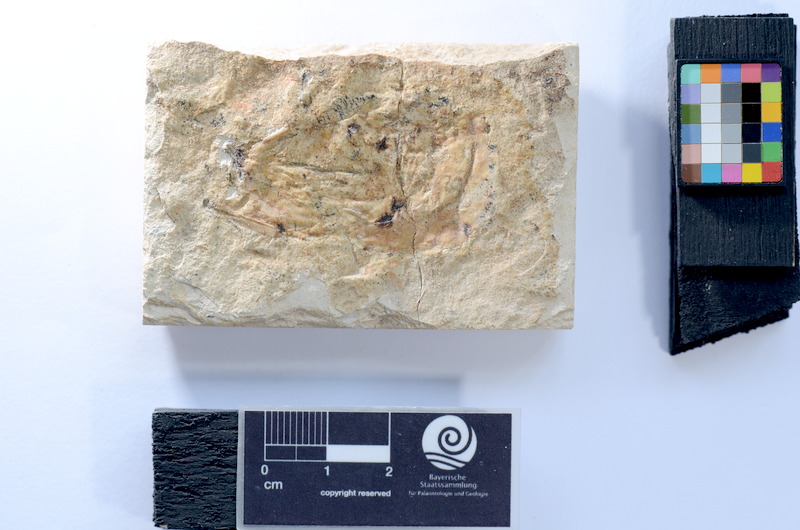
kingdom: Animalia
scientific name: Animalia
